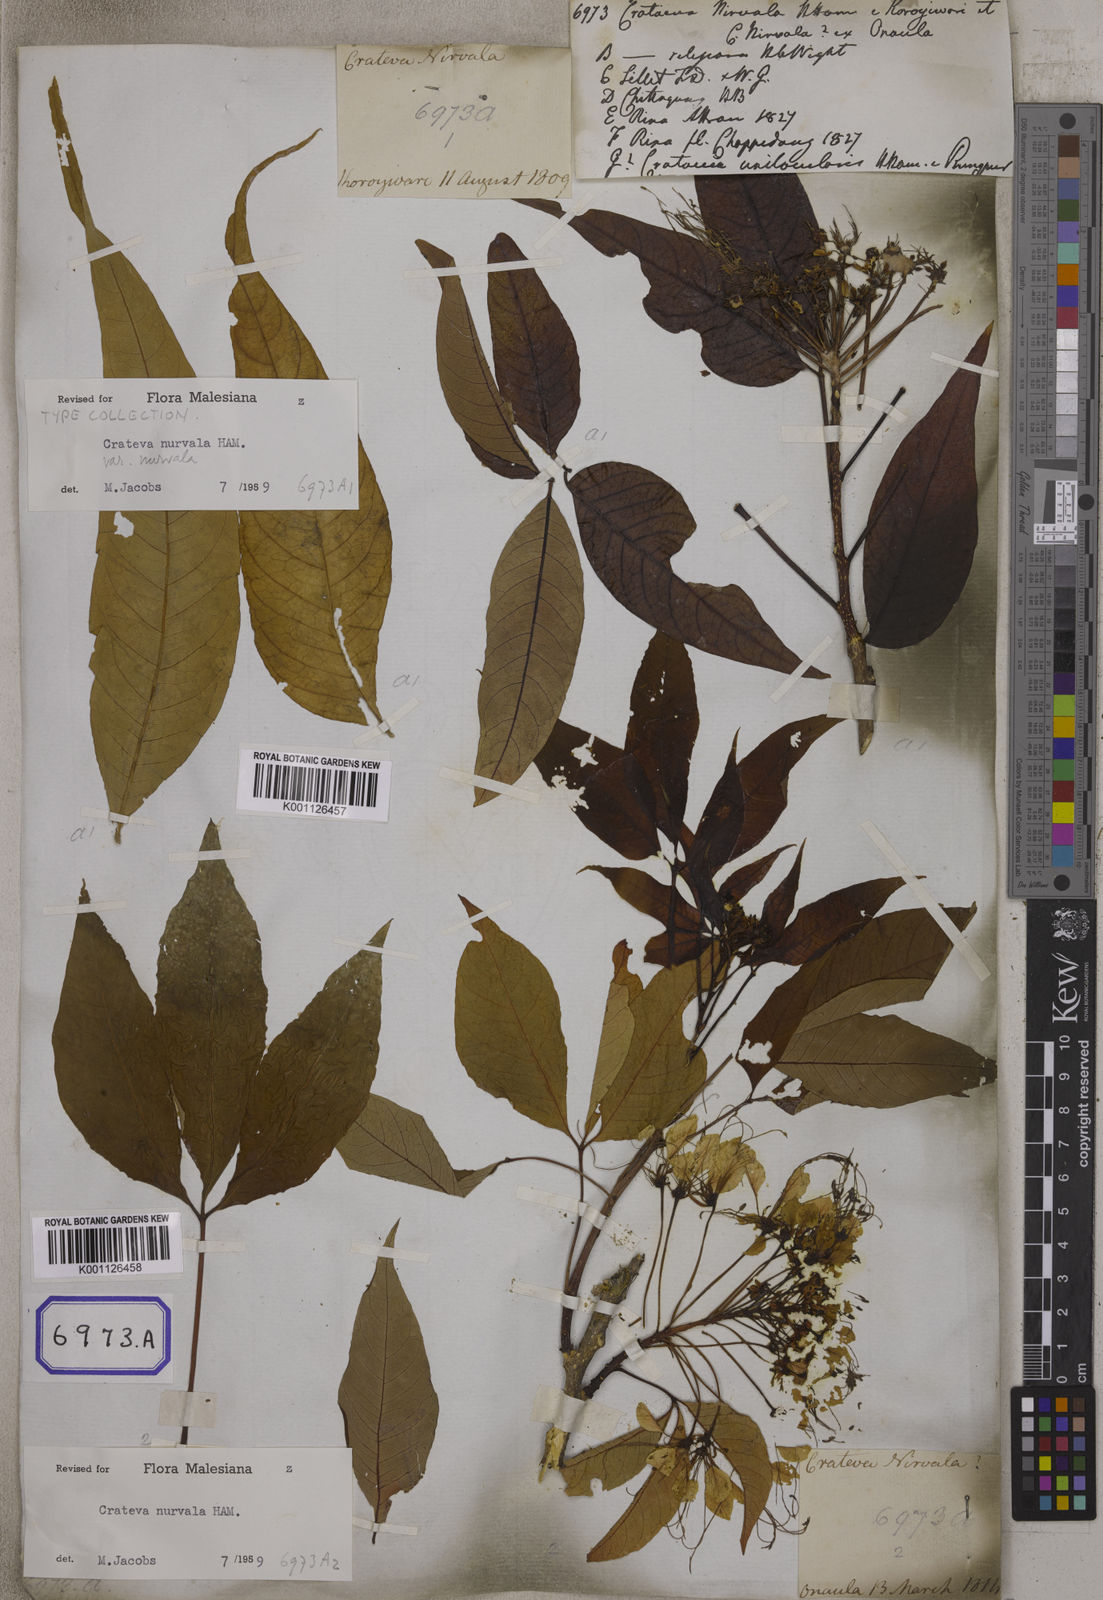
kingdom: Plantae
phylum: Tracheophyta
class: Magnoliopsida
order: Brassicales
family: Capparaceae
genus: Crateva
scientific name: Crateva magna
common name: Three-leaf-caper
